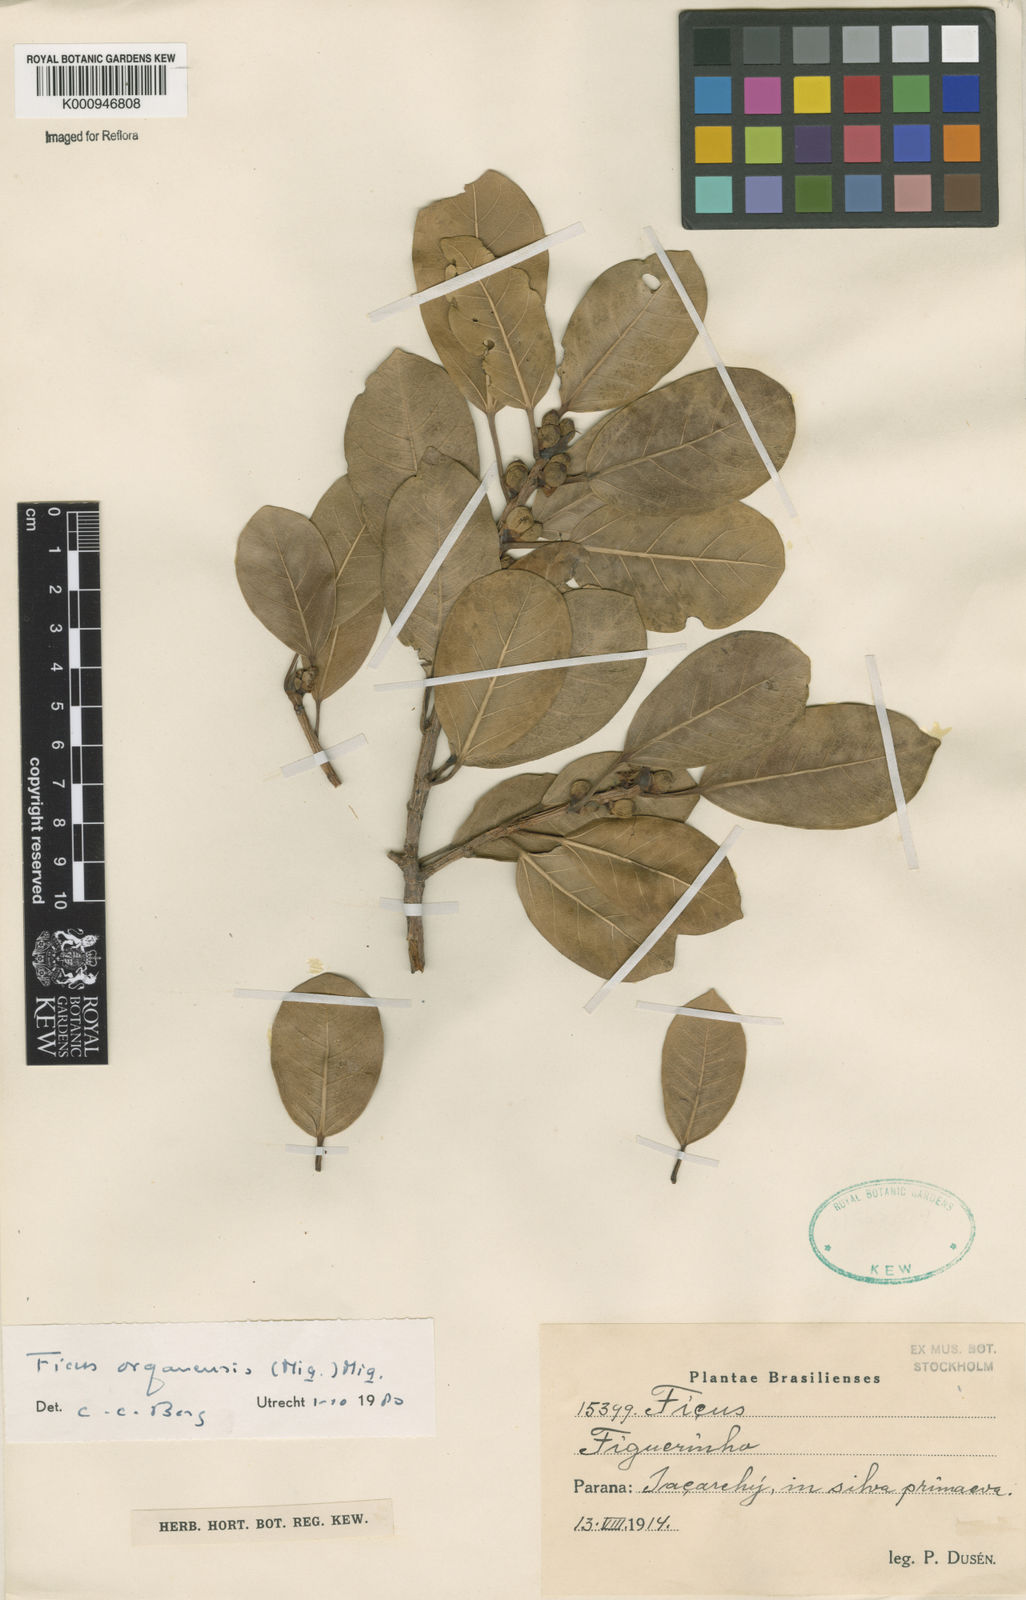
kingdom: Plantae
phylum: Tracheophyta
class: Magnoliopsida
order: Rosales
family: Moraceae
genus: Ficus
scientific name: Ficus organensis
